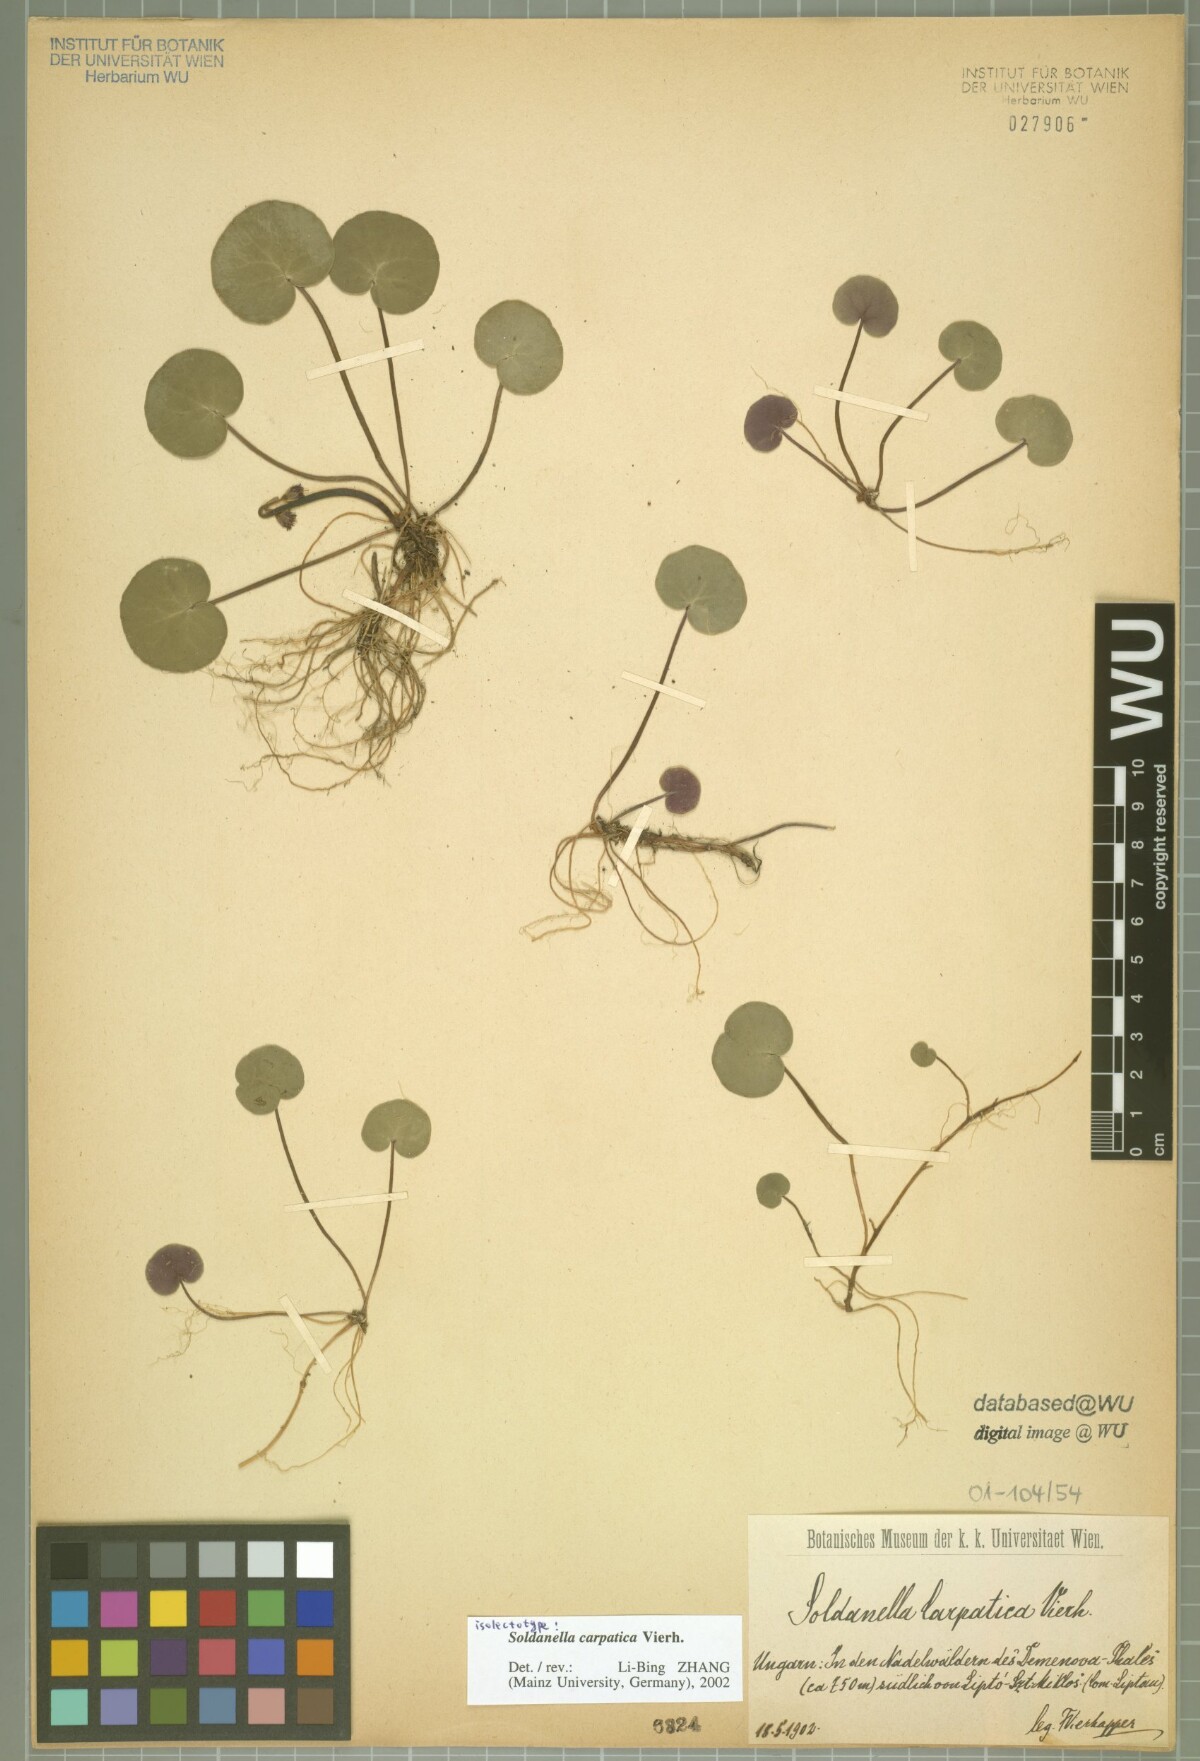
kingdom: Plantae
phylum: Tracheophyta
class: Magnoliopsida
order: Ericales
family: Primulaceae
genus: Soldanella
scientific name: Soldanella carpatica
